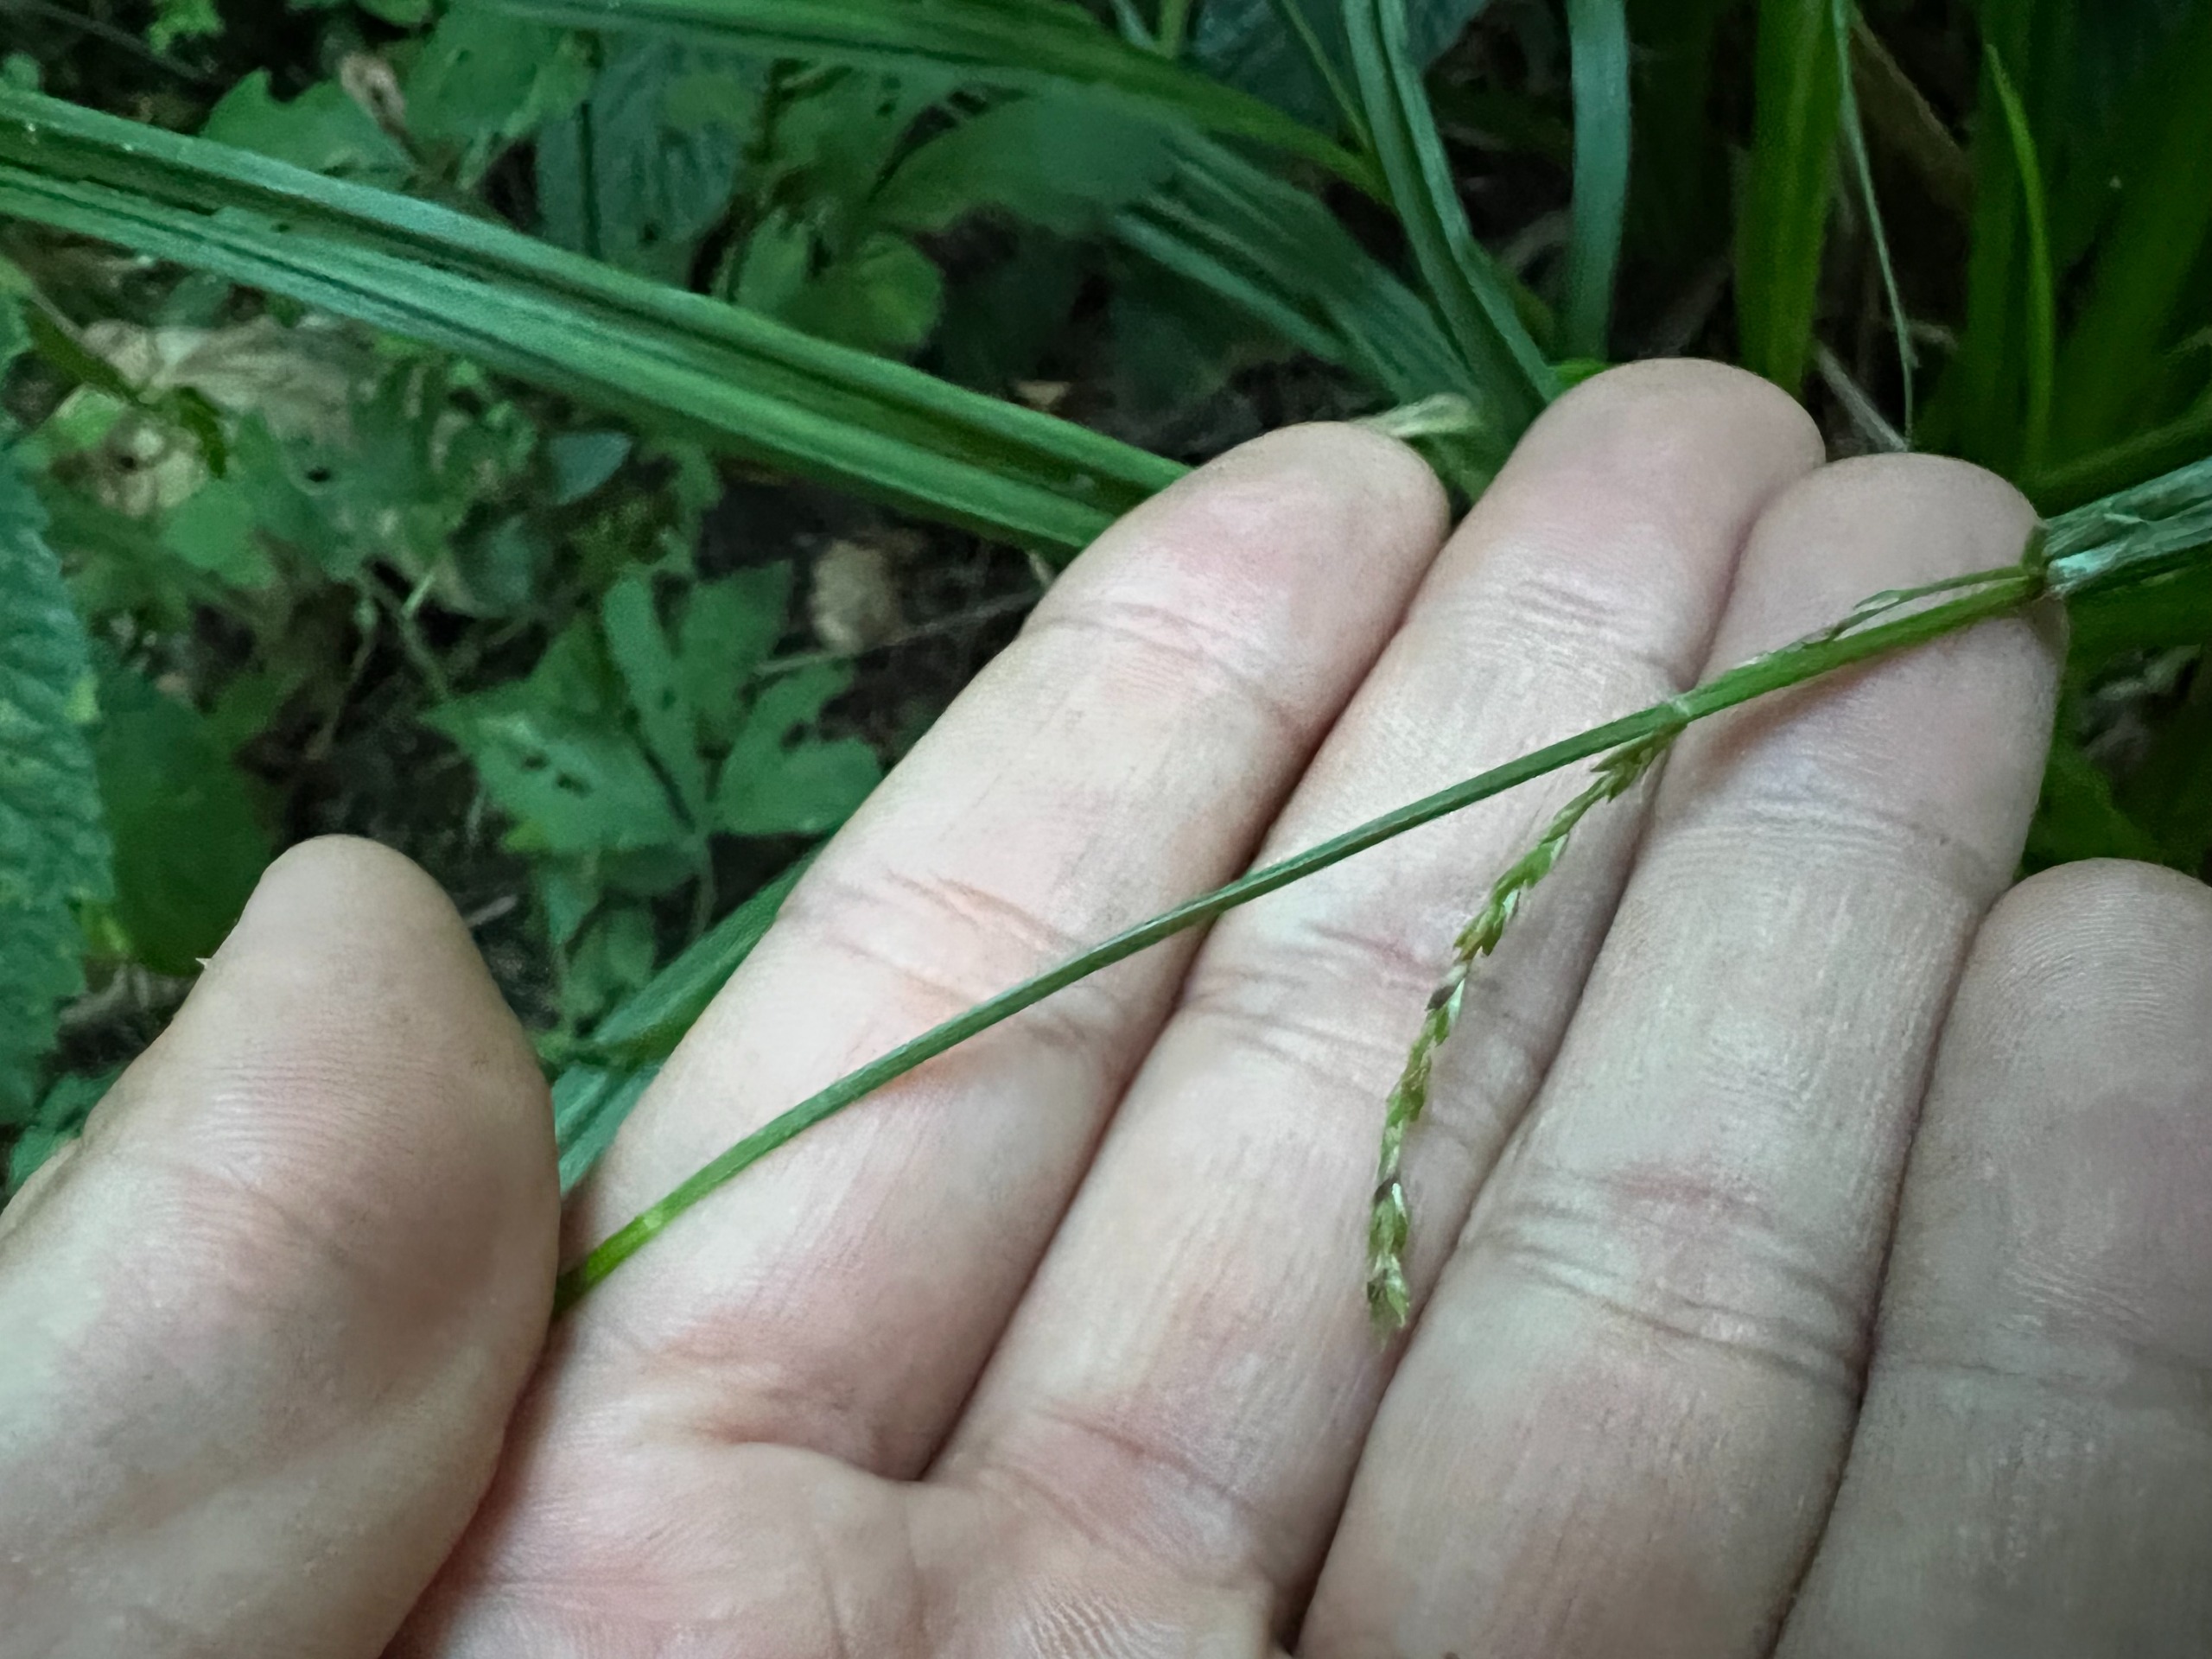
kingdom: Plantae
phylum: Tracheophyta
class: Liliopsida
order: Poales
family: Cyperaceae
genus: Carex
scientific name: Carex strigosa
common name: Tyndakset star
